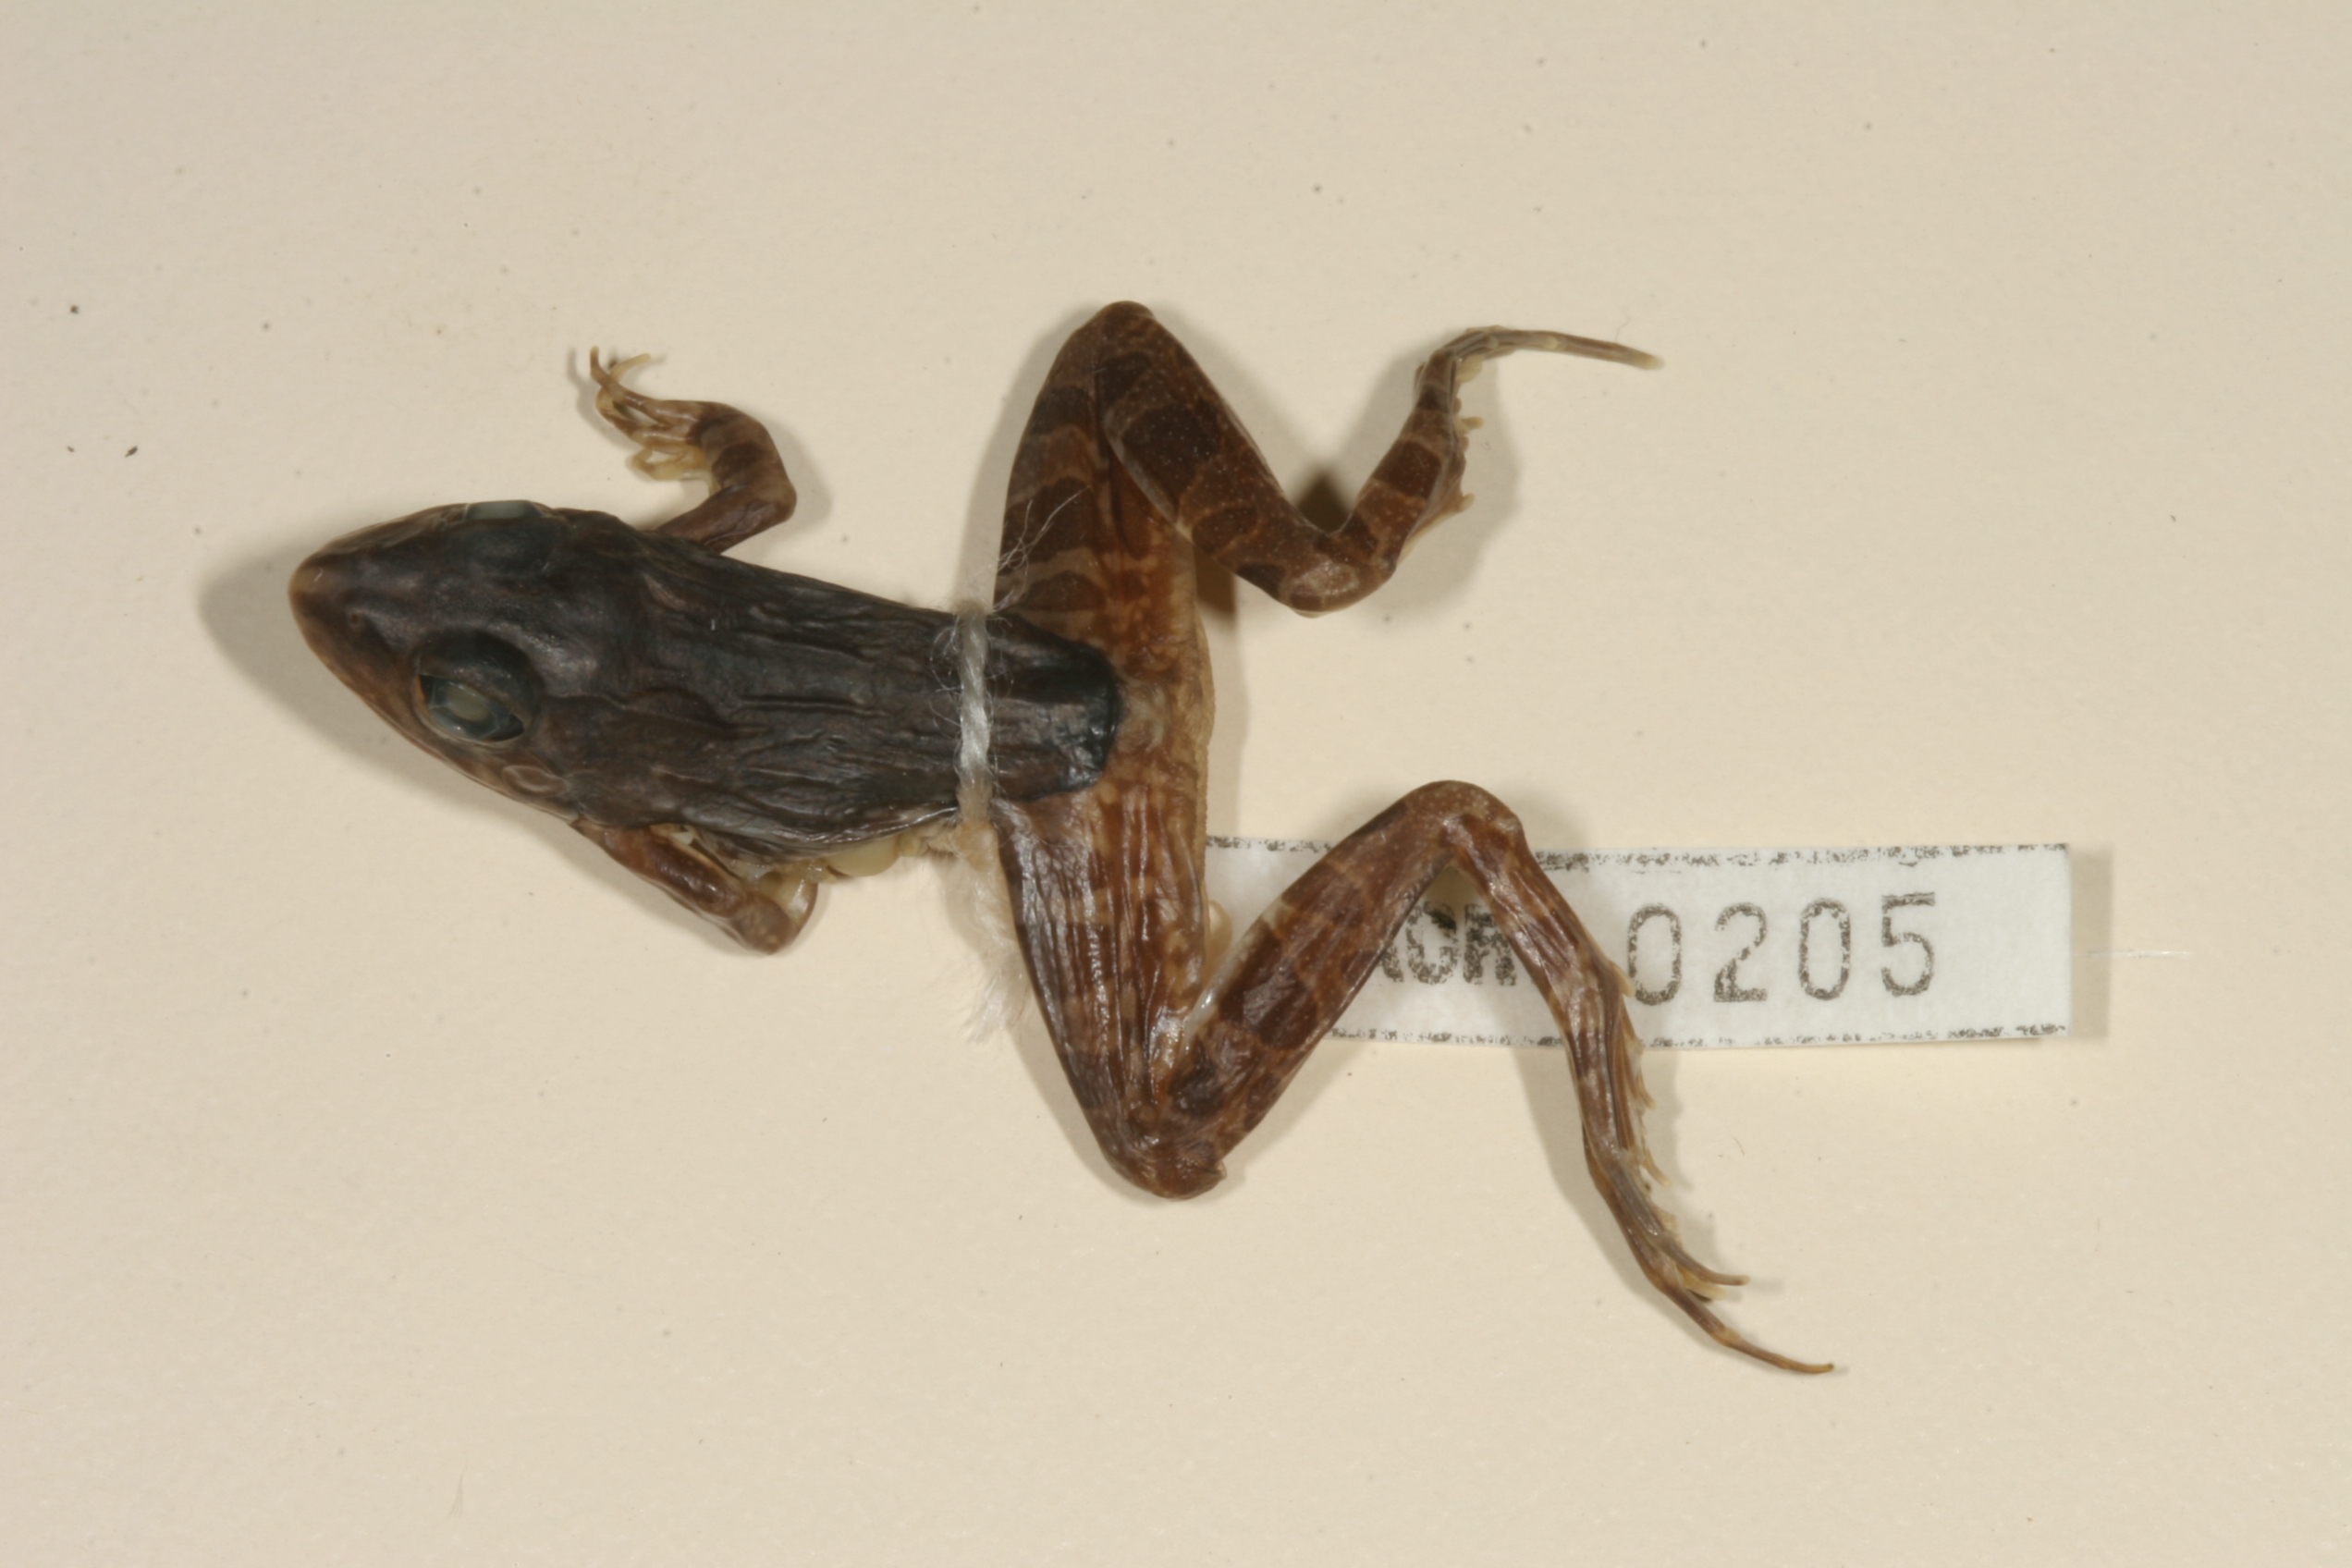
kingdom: Animalia
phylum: Chordata
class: Amphibia
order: Anura
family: Pyxicephalidae
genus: Amietia
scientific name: Amietia angolensis
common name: Dusky-throated frog
